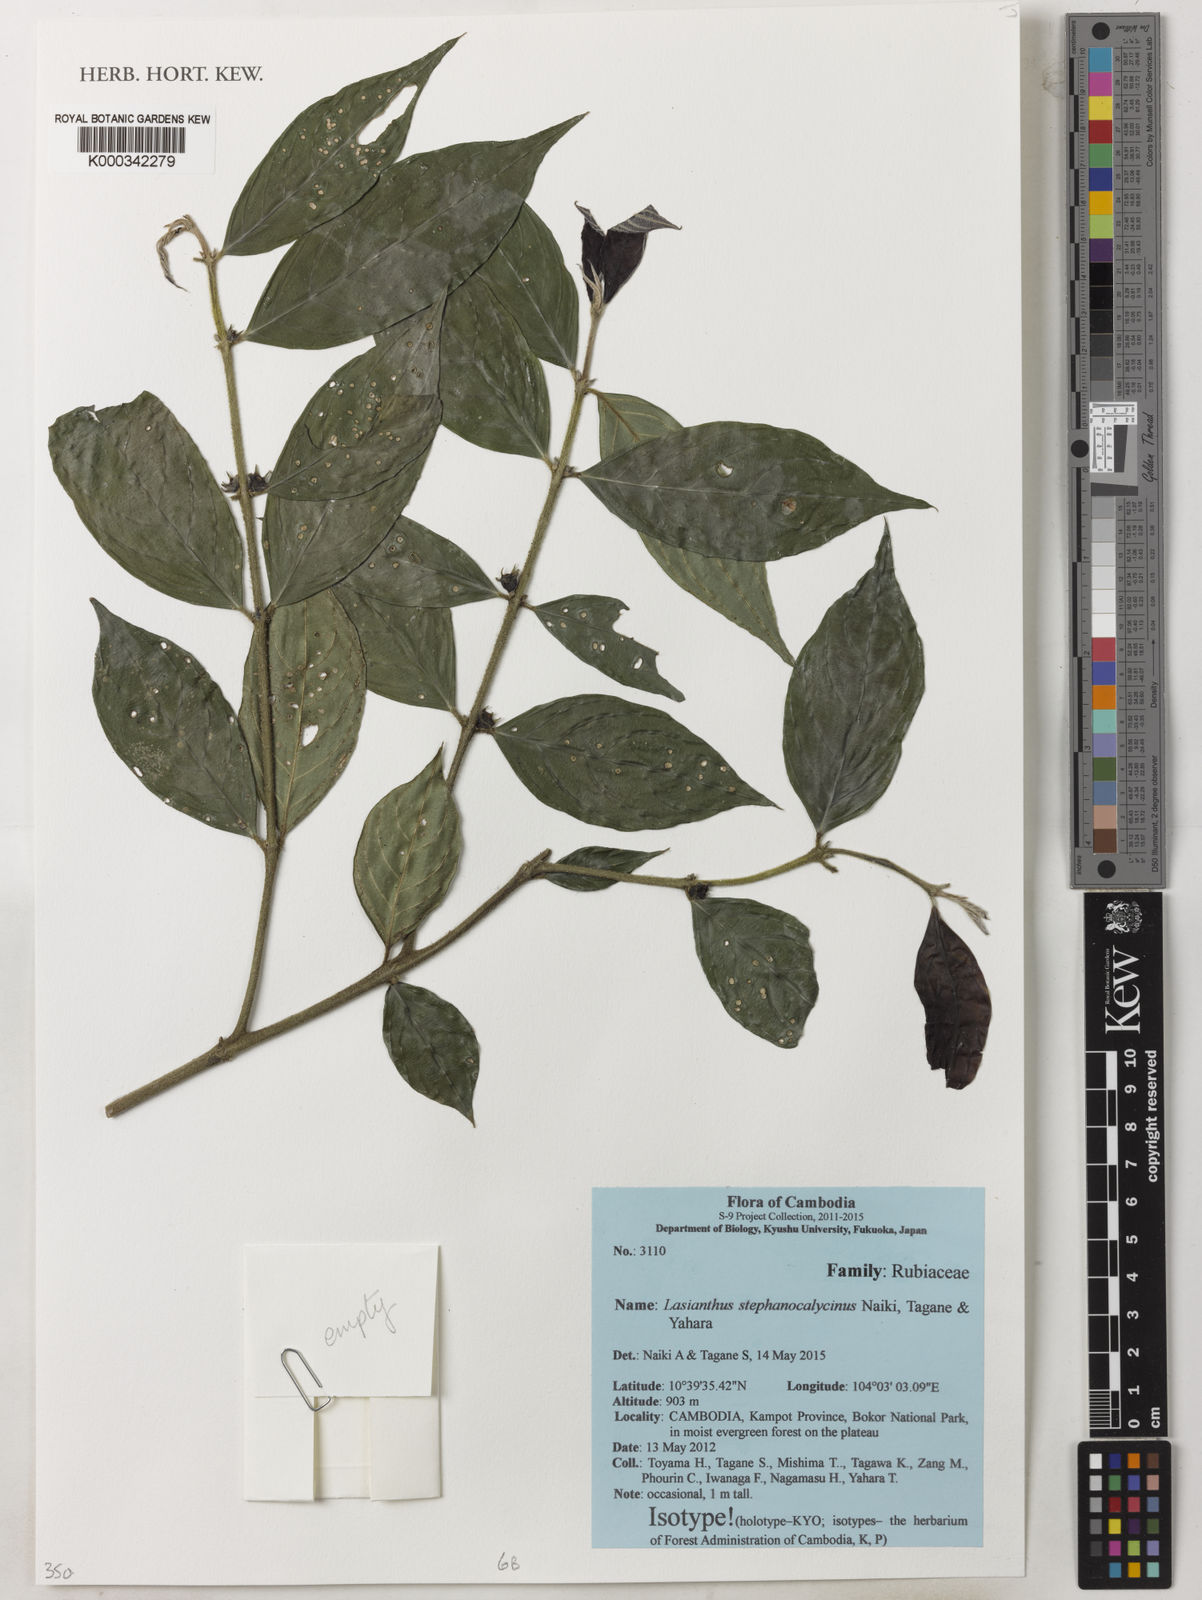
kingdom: Plantae
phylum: Tracheophyta
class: Magnoliopsida
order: Gentianales
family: Rubiaceae
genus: Lasianthus
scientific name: Lasianthus stephanocalycinus
